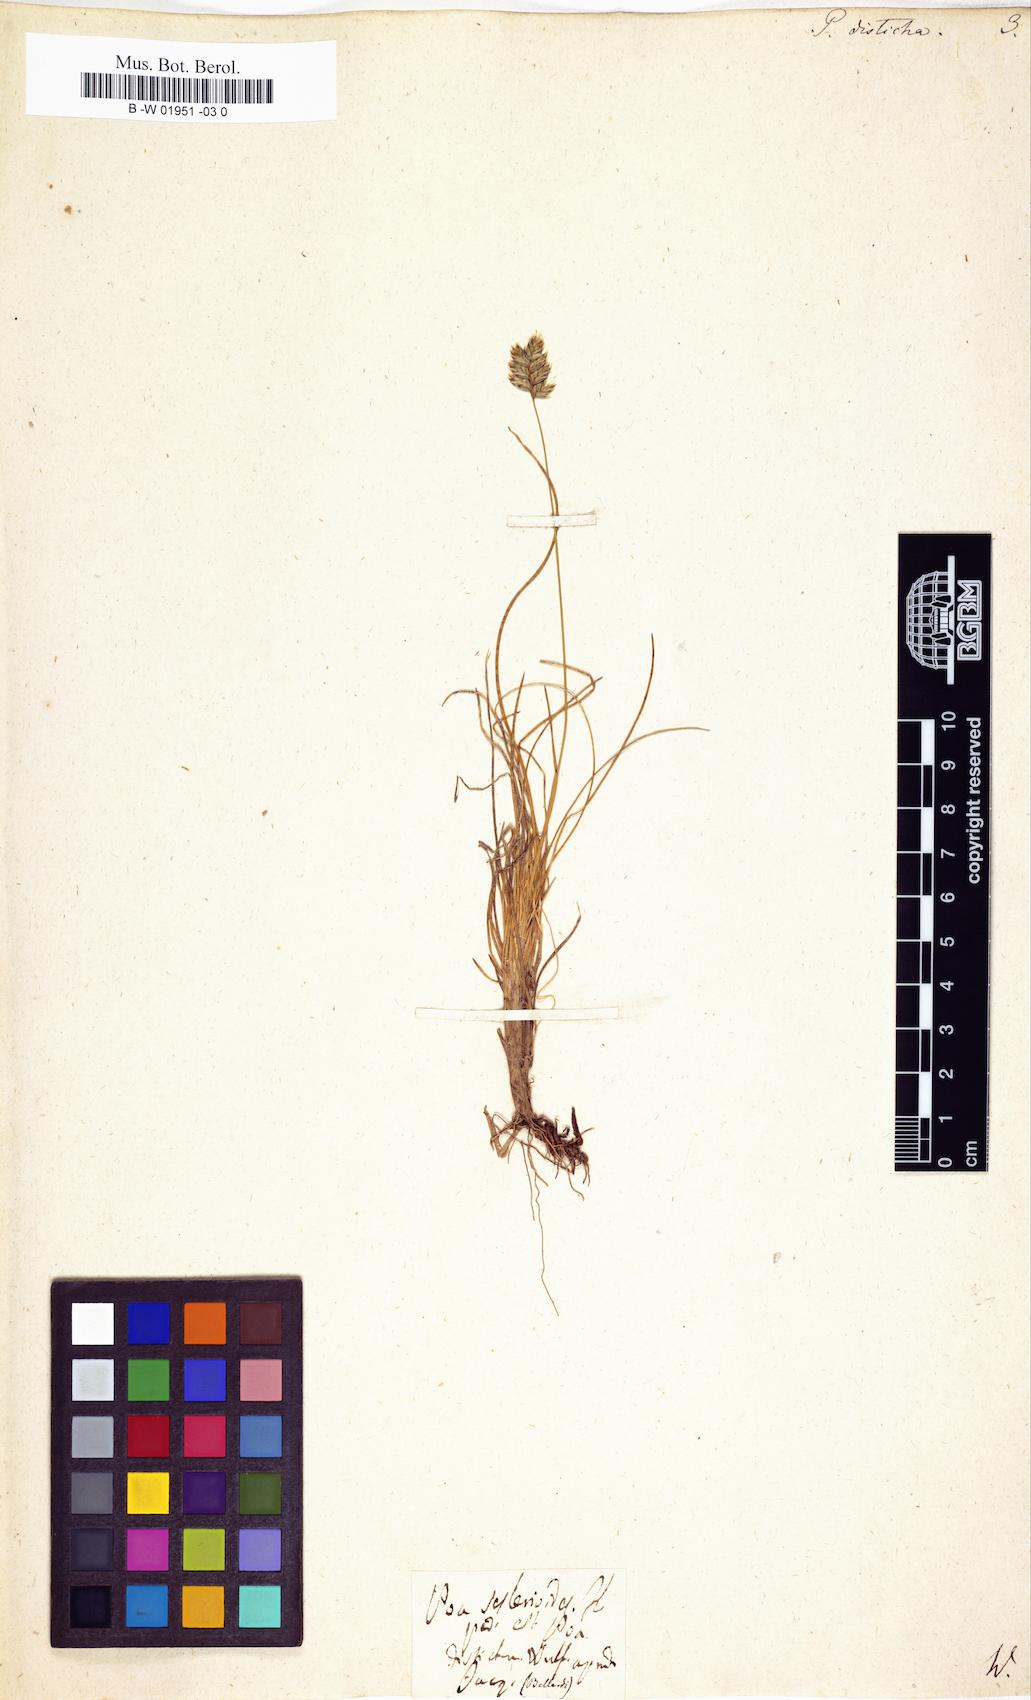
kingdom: Plantae
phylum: Tracheophyta
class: Liliopsida
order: Poales
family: Poaceae
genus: Oreochloa
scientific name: Oreochloa disticha
